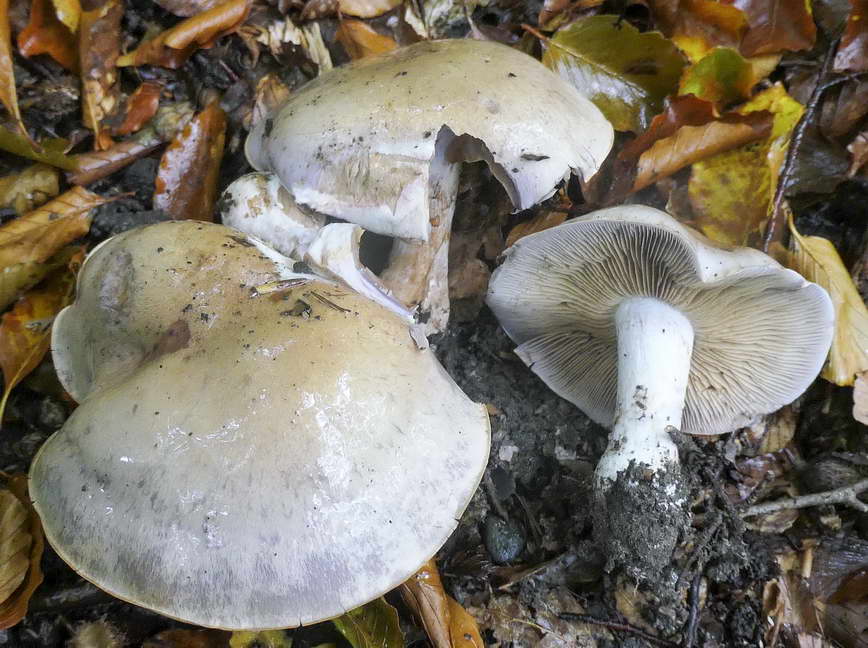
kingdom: Fungi
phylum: Basidiomycota
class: Agaricomycetes
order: Agaricales
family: Cortinariaceae
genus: Cortinarius
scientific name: Cortinarius largus
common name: violetrandet slørhat
